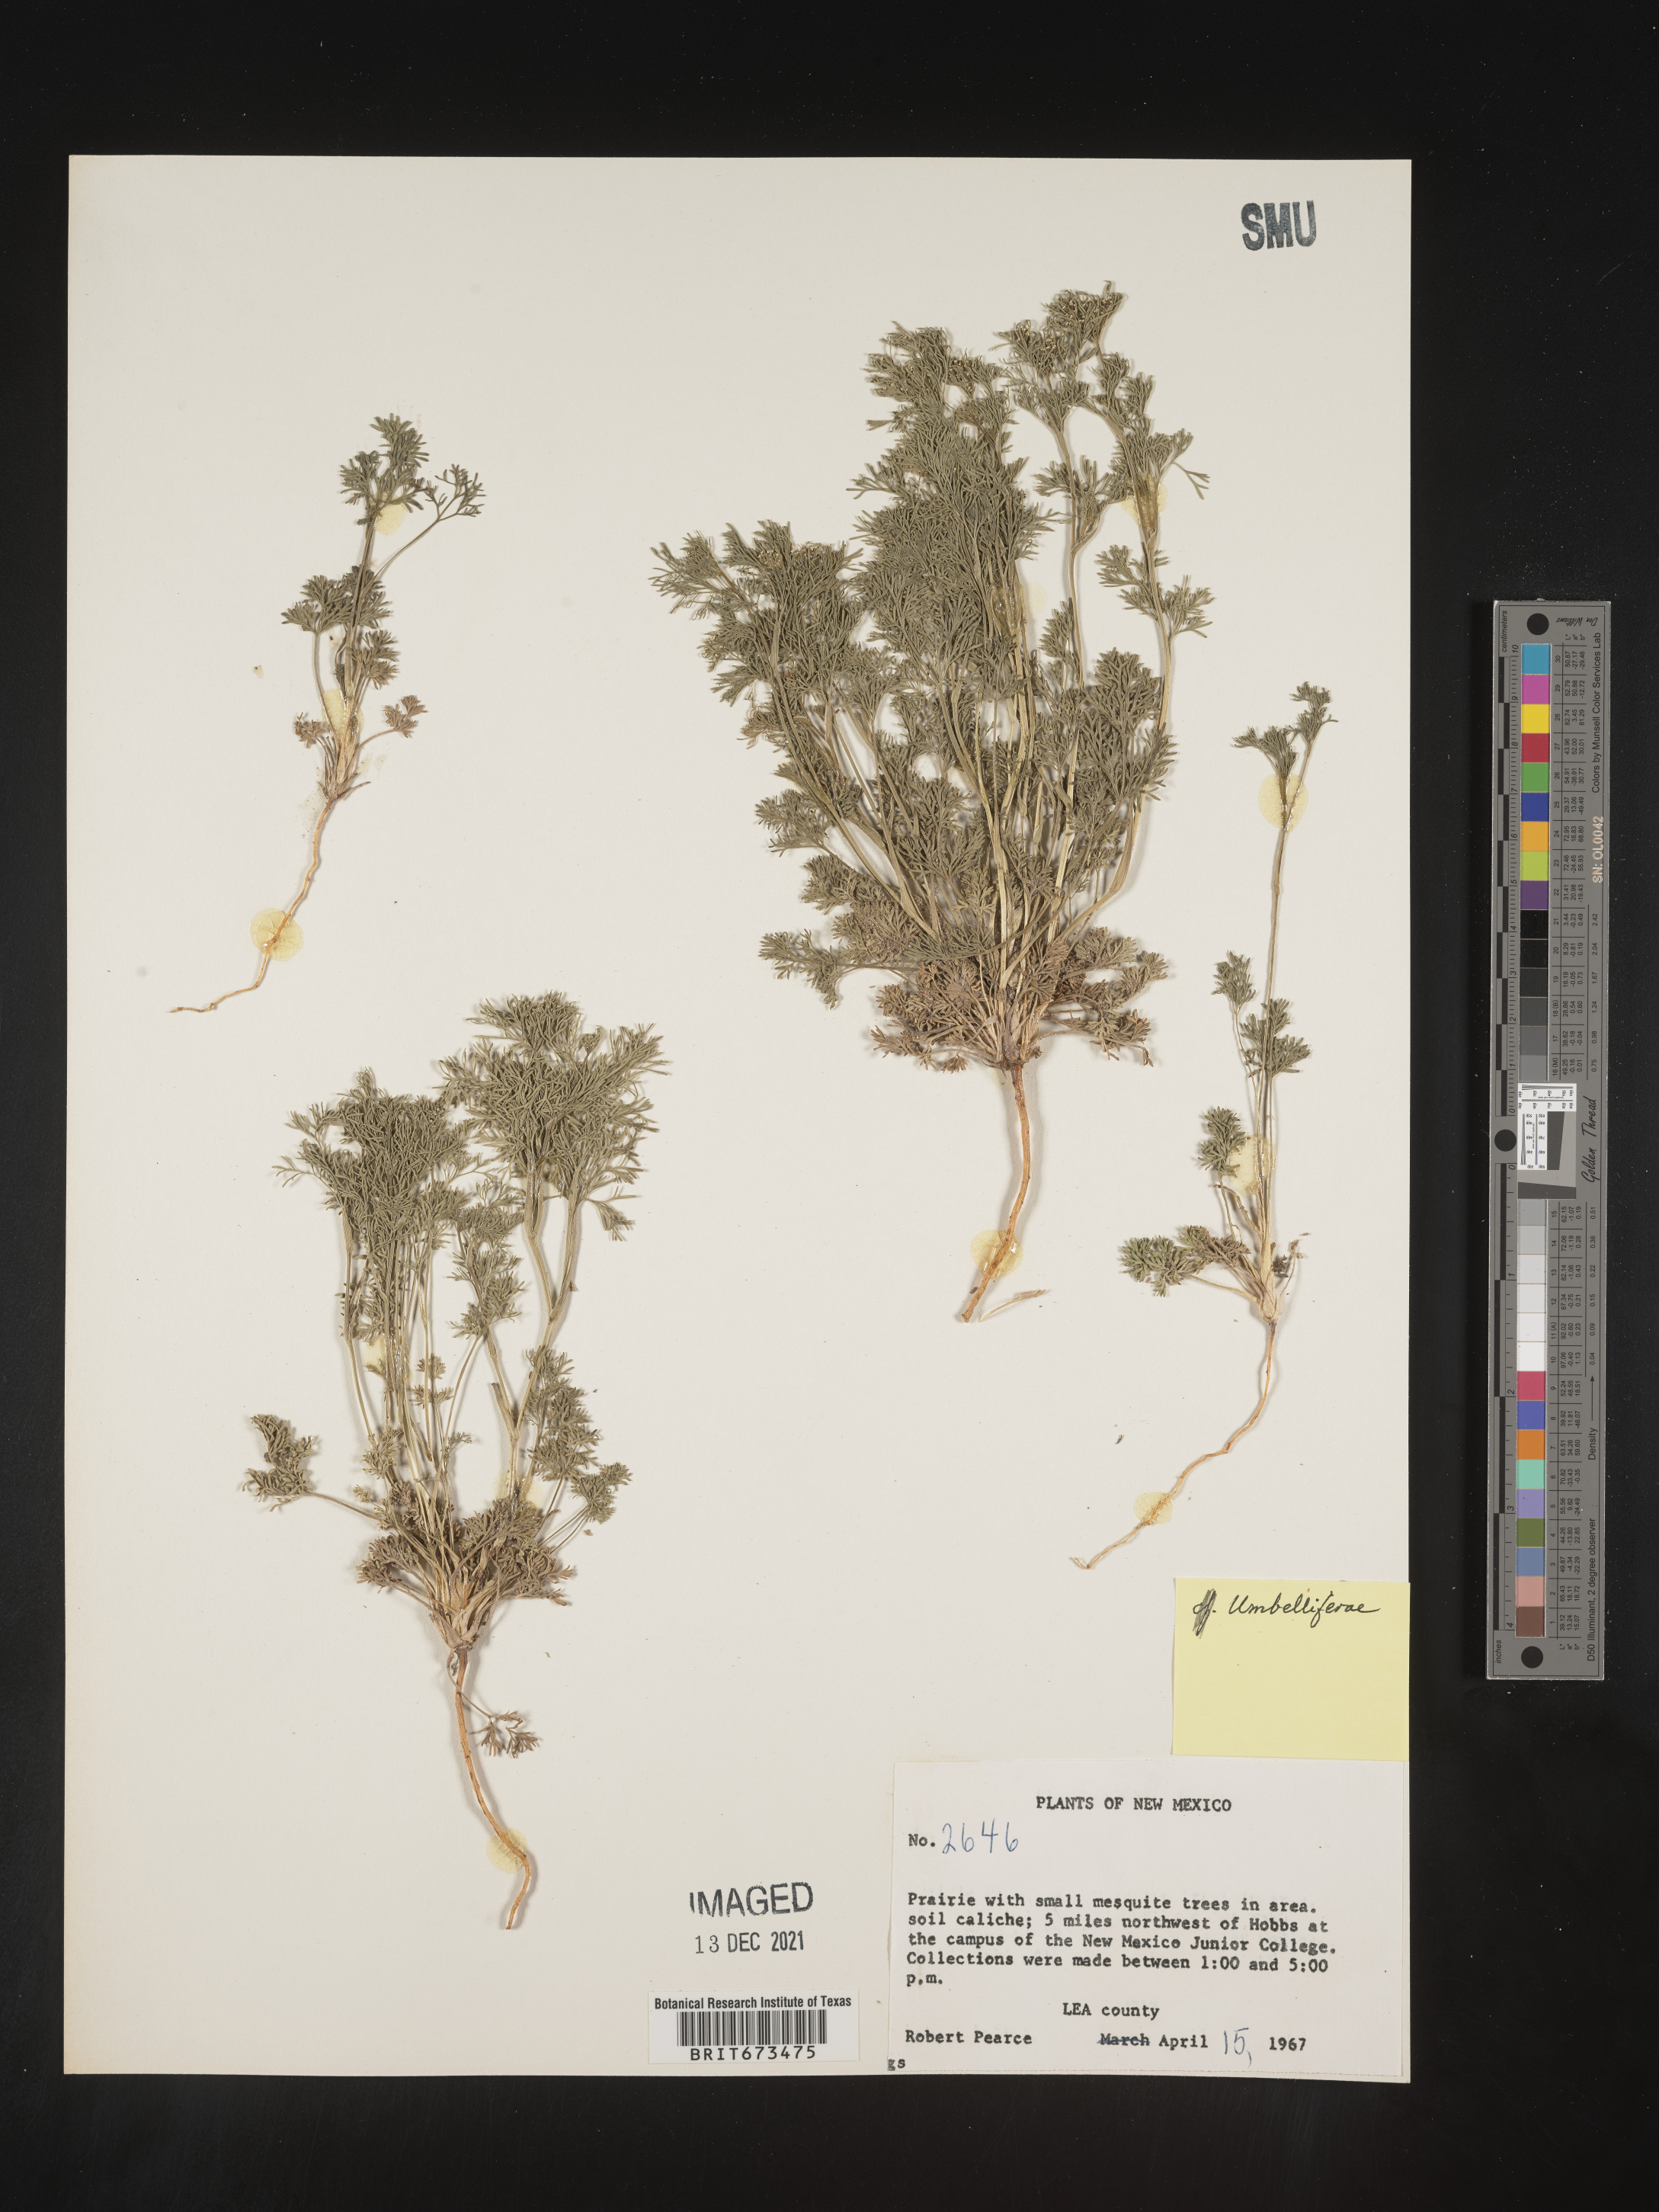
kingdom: Plantae
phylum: Tracheophyta
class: Magnoliopsida
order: Apiales
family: Apiaceae
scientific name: Apiaceae
